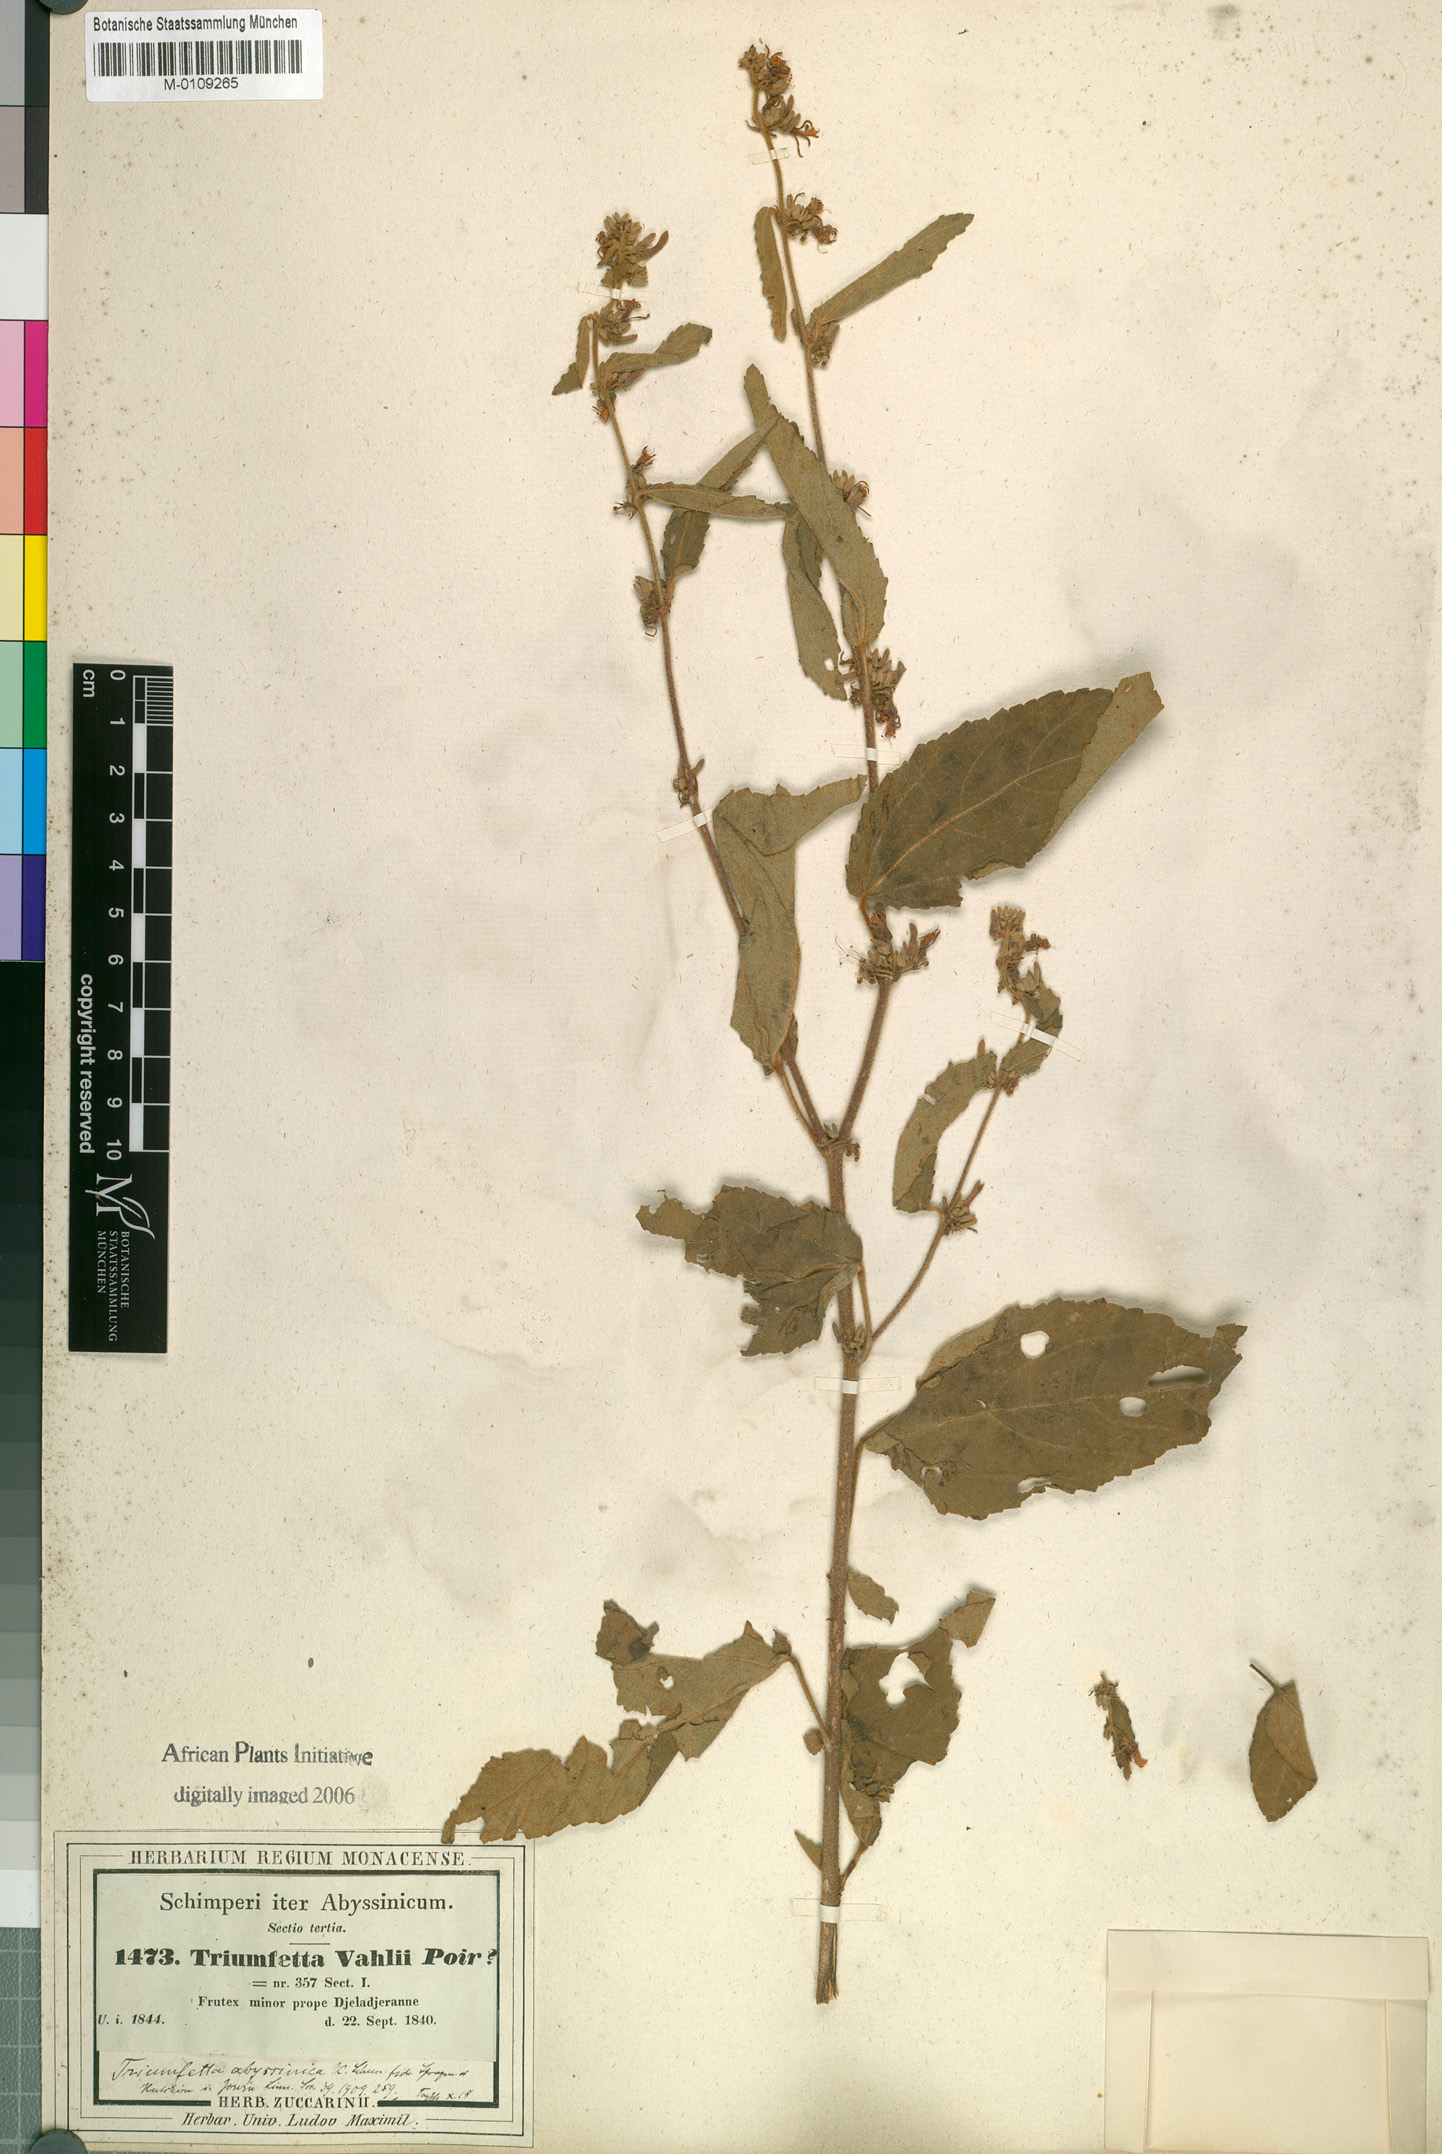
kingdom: Plantae
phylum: Tracheophyta
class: Magnoliopsida
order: Malvales
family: Malvaceae
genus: Triumfetta
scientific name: Triumfetta pilosa
